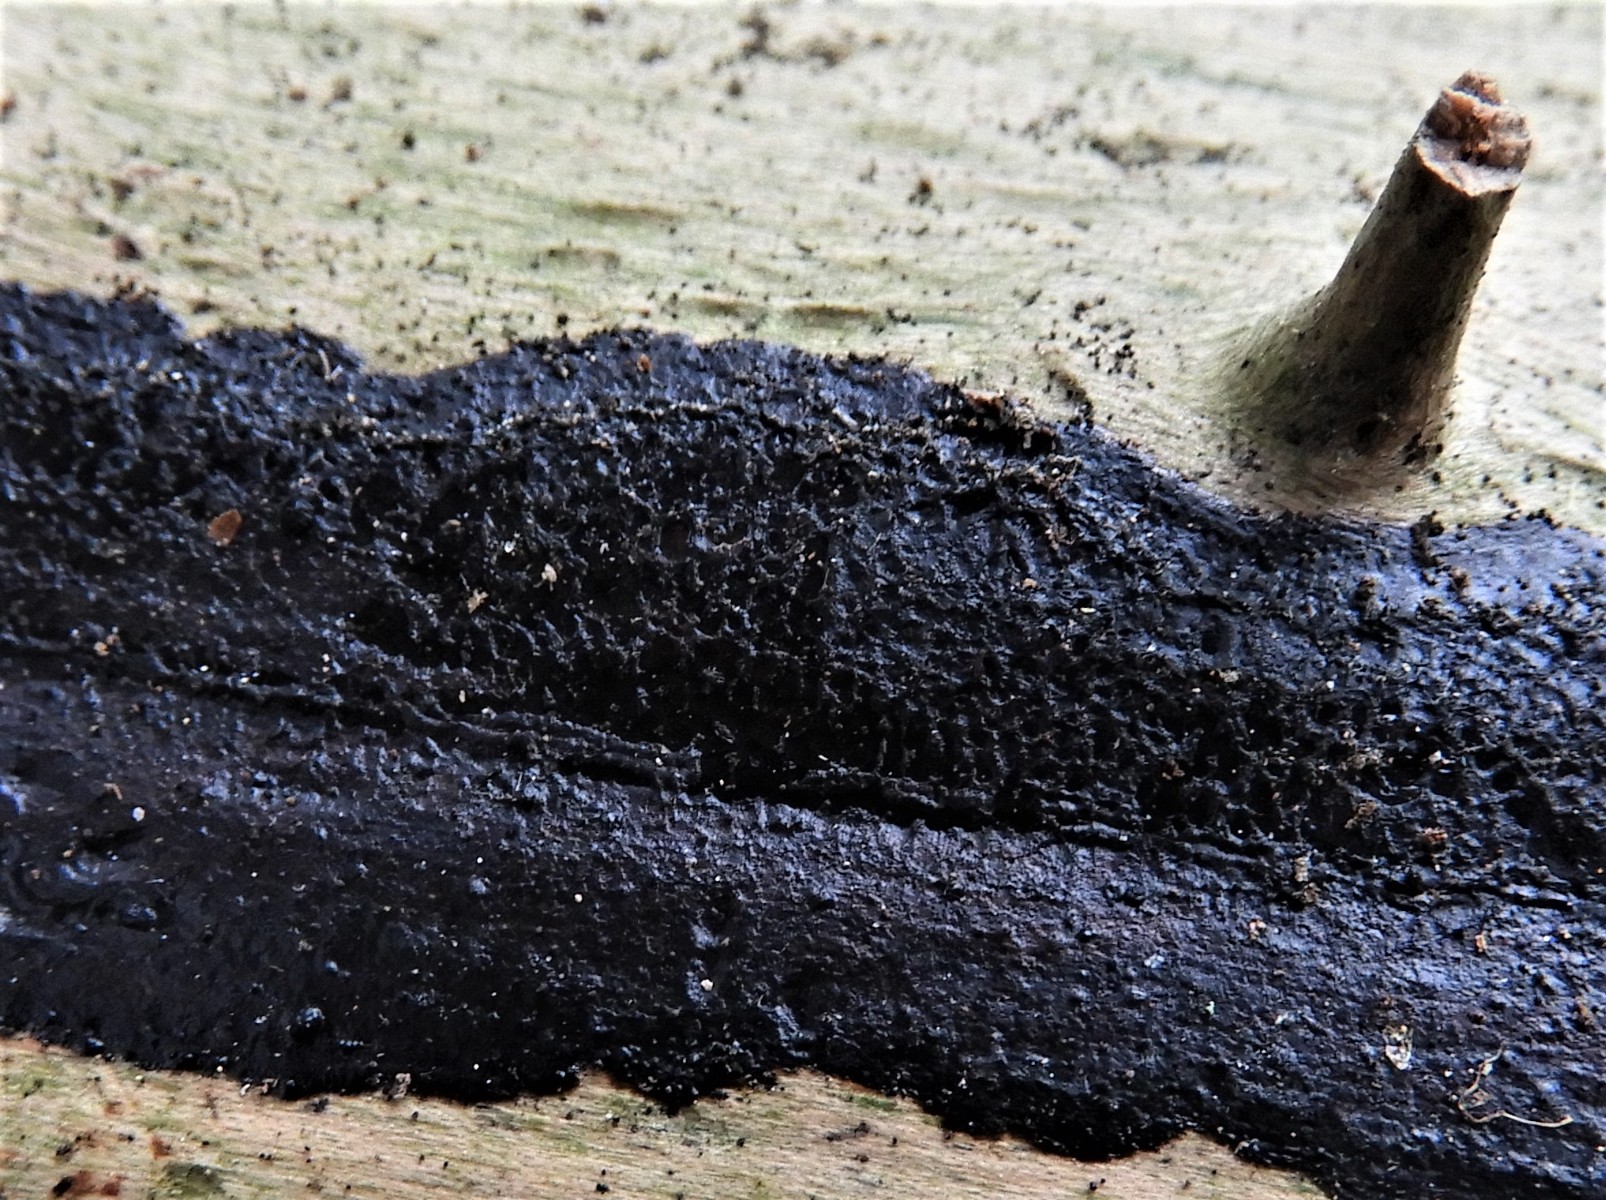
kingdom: Fungi
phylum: Basidiomycota
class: Agaricomycetes
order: Auriculariales
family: Auriculariaceae
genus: Exidia
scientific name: Exidia pithya
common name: gran-bævretop
